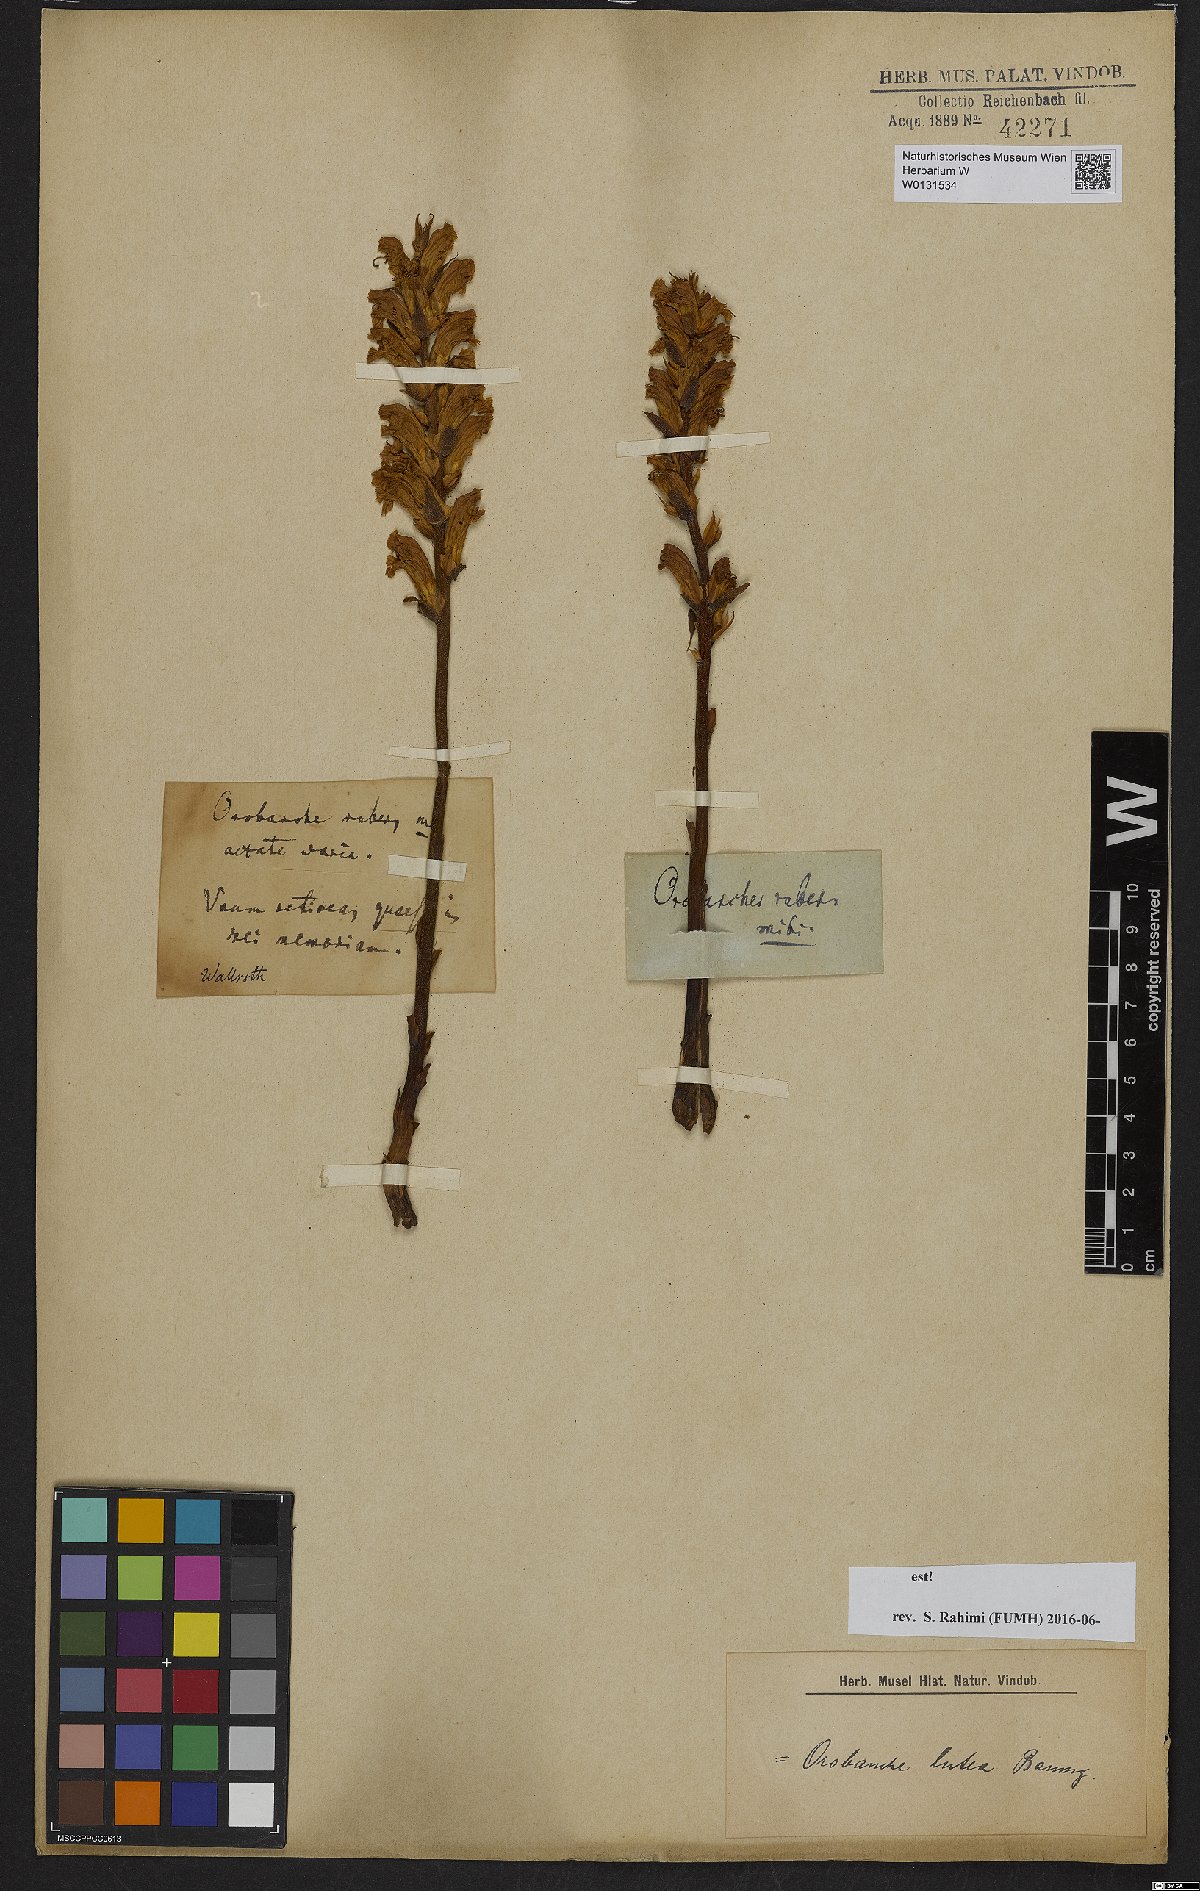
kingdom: Plantae
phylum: Tracheophyta
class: Magnoliopsida
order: Lamiales
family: Orobanchaceae
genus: Orobanche
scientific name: Orobanche lutea
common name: Yellow broomrape
